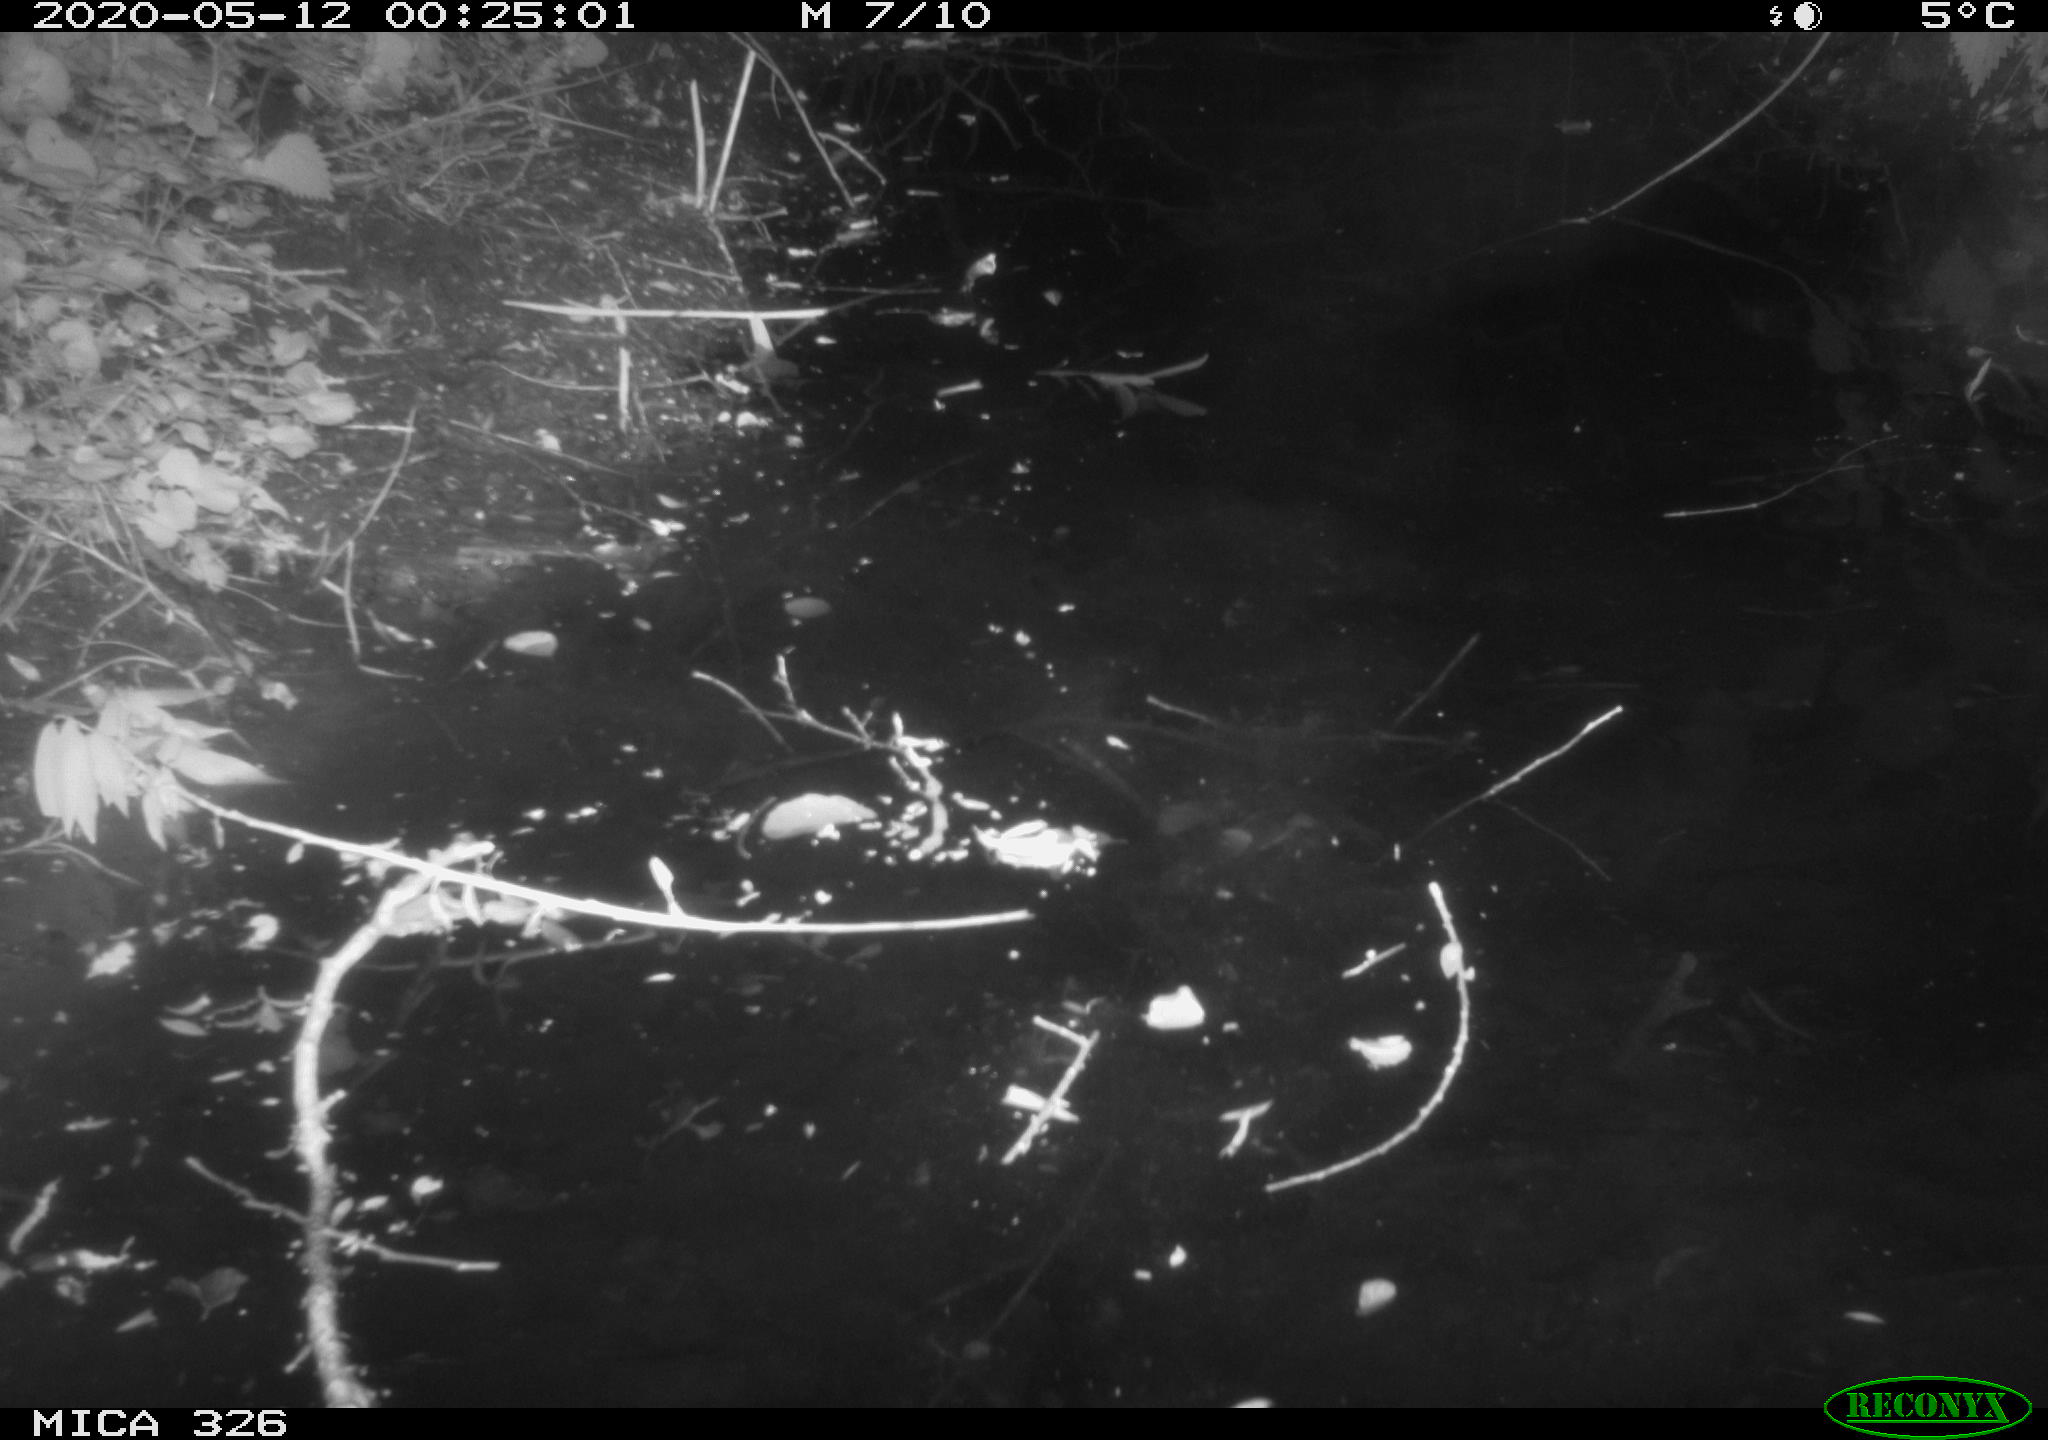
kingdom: Animalia
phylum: Chordata
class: Mammalia
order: Rodentia
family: Myocastoridae
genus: Myocastor
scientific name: Myocastor coypus
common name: Coypu
